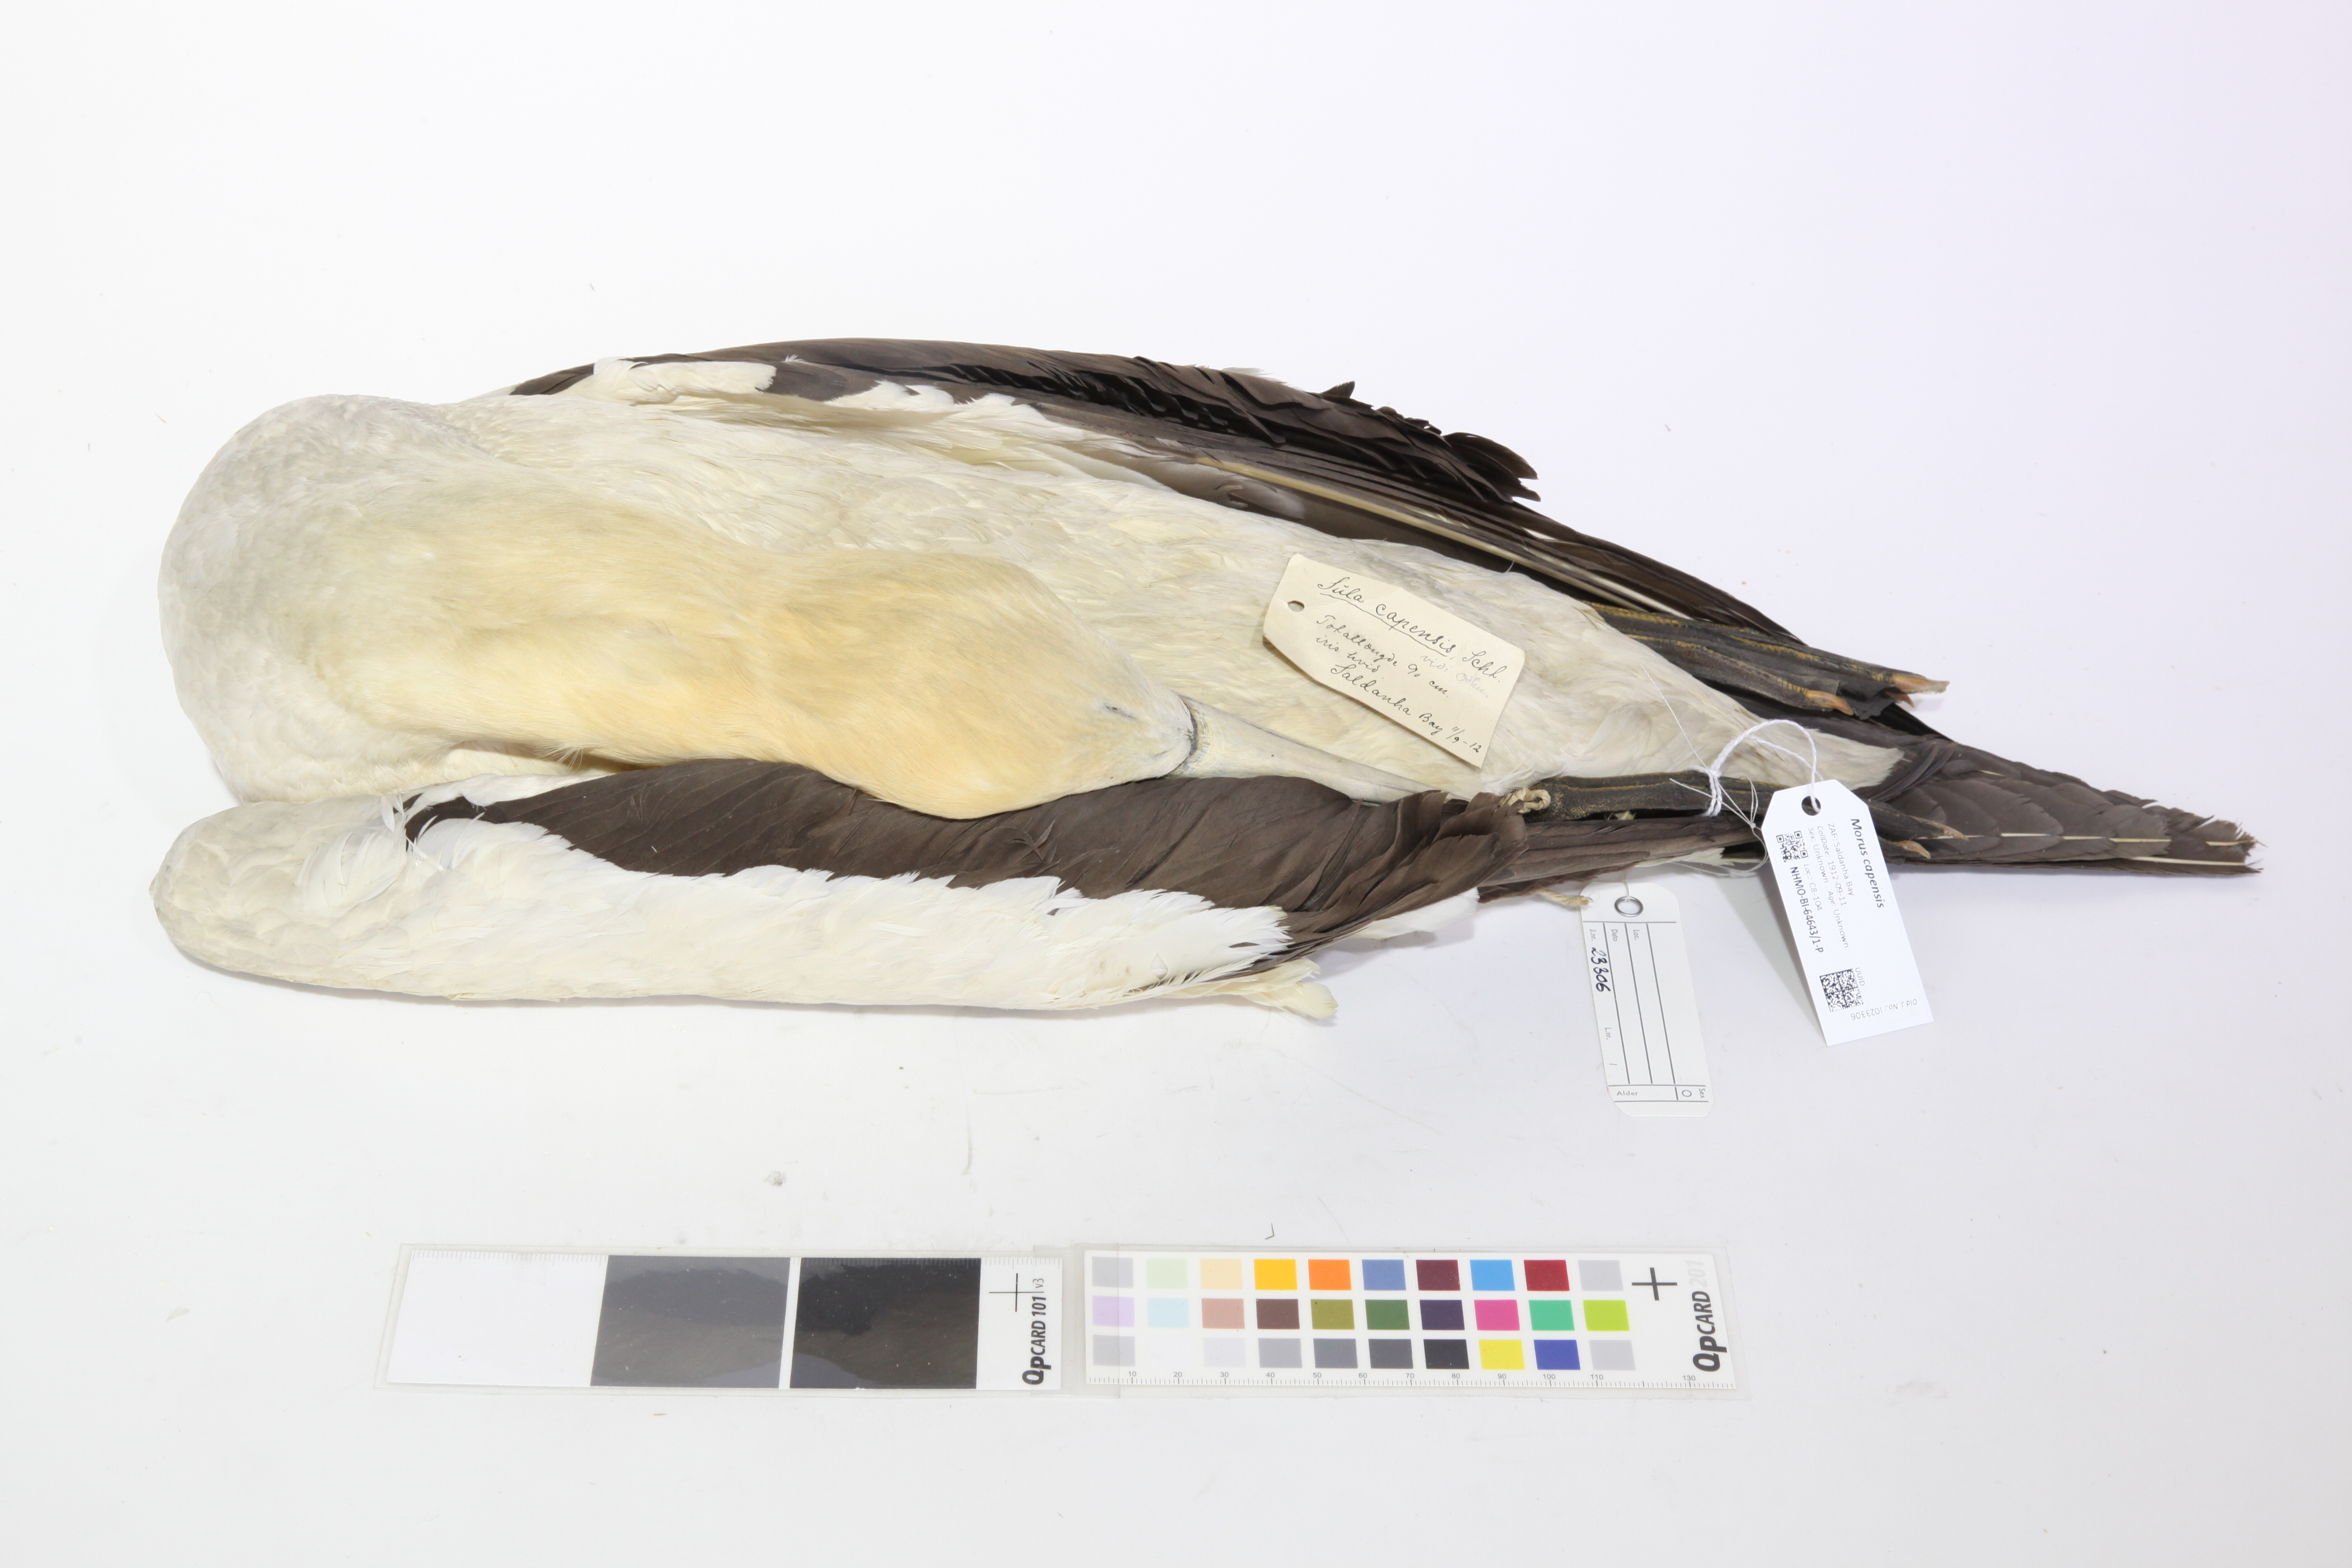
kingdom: Animalia
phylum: Chordata
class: Aves
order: Suliformes
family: Sulidae
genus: Morus
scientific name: Morus capensis
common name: Cape gannet
